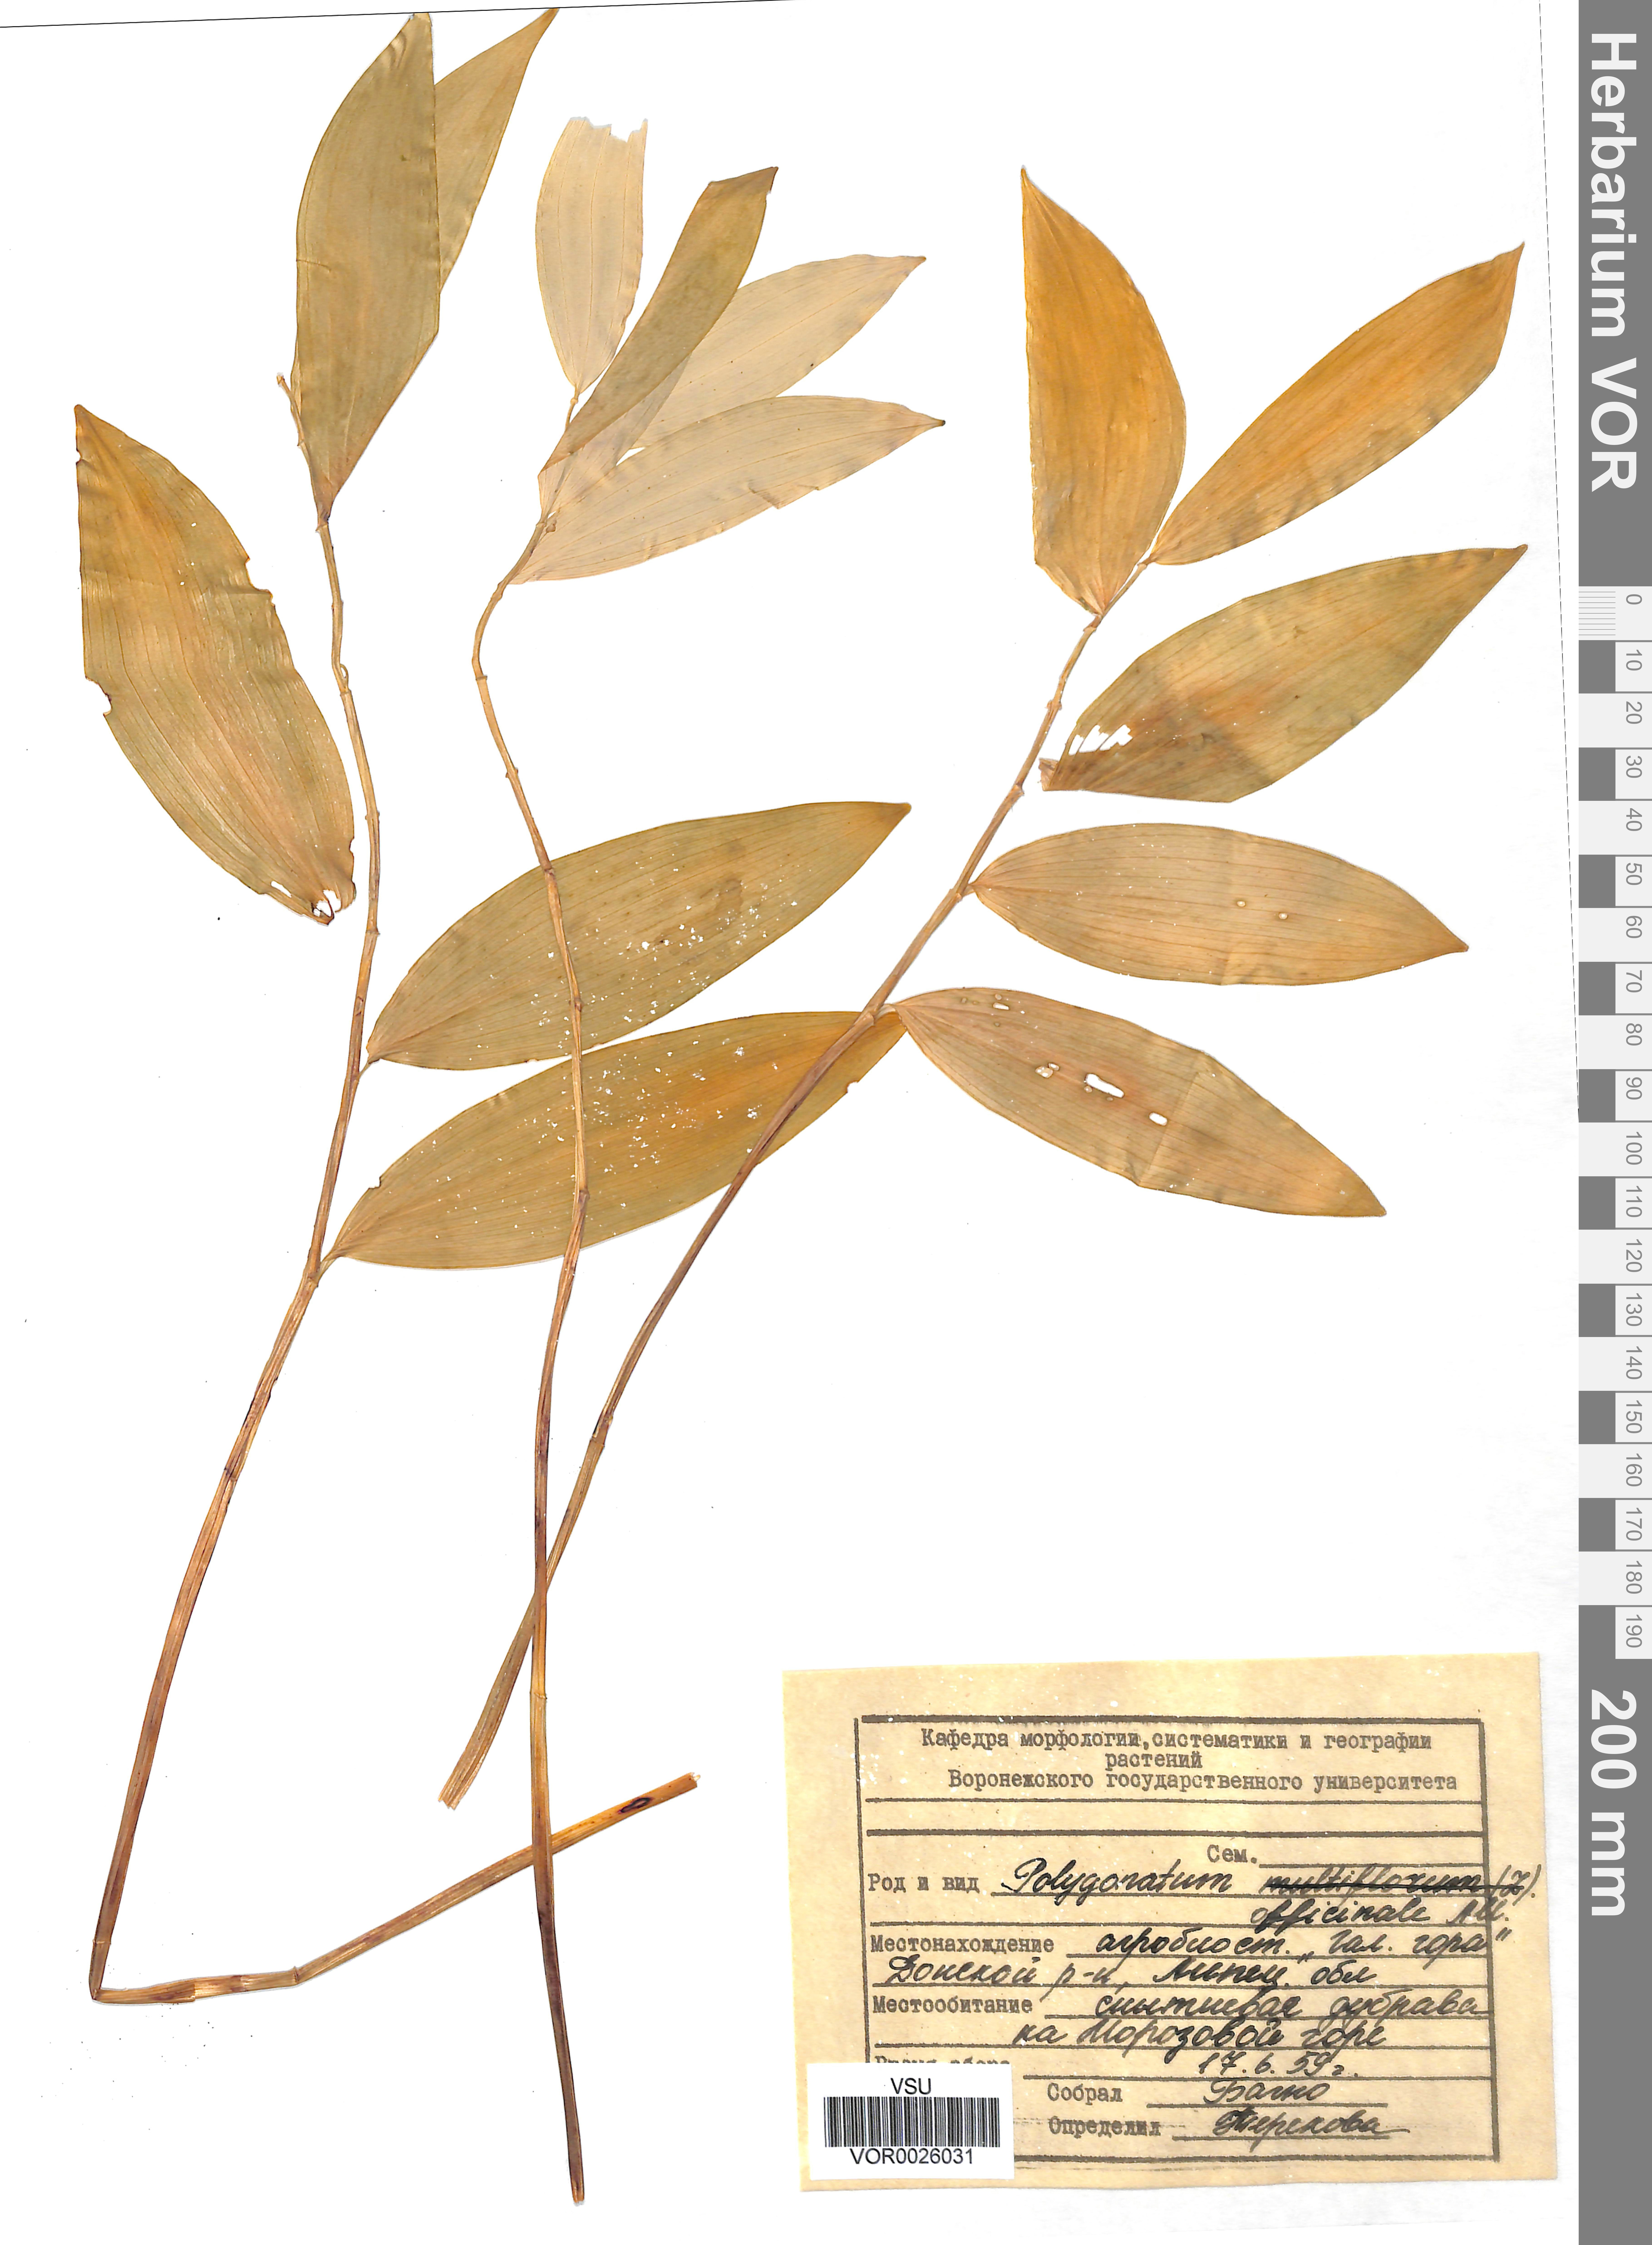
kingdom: Plantae
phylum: Tracheophyta
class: Liliopsida
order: Asparagales
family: Asparagaceae
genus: Polygonatum
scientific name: Polygonatum odoratum
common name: Angular solomon's-seal
